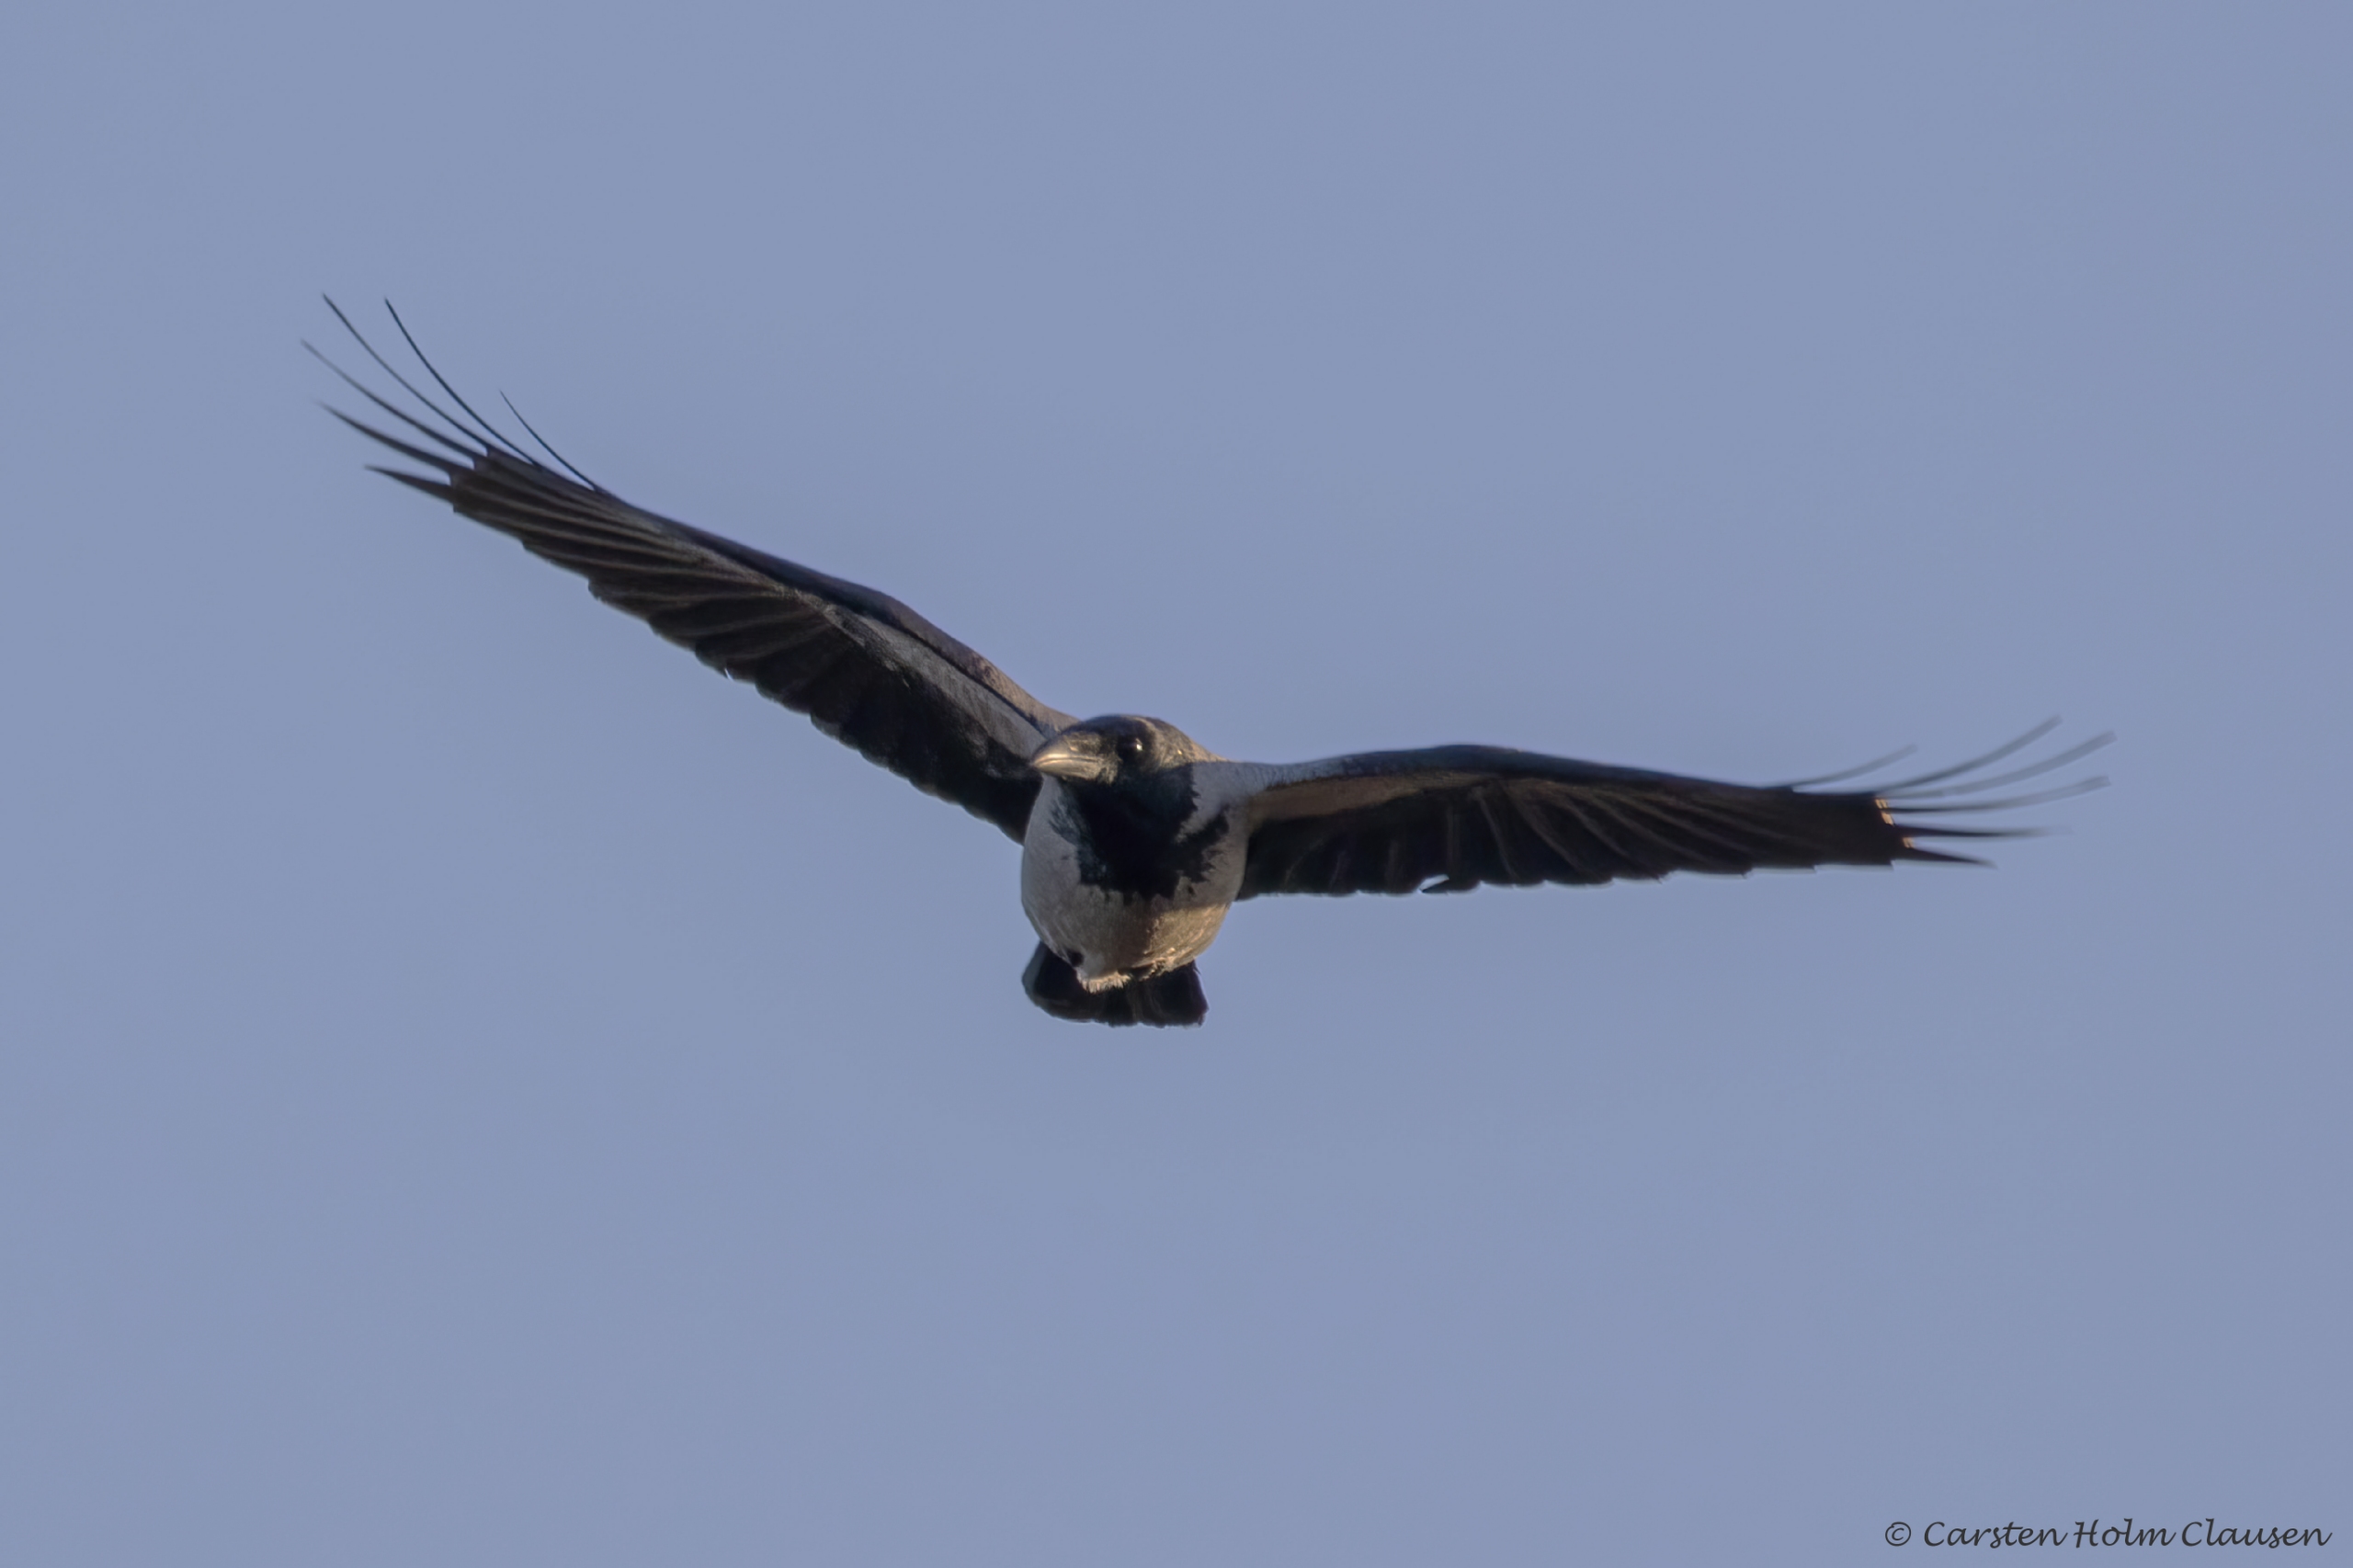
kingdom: Animalia
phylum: Chordata
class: Aves
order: Passeriformes
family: Corvidae
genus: Corvus
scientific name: Corvus cornix
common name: Gråkrage
